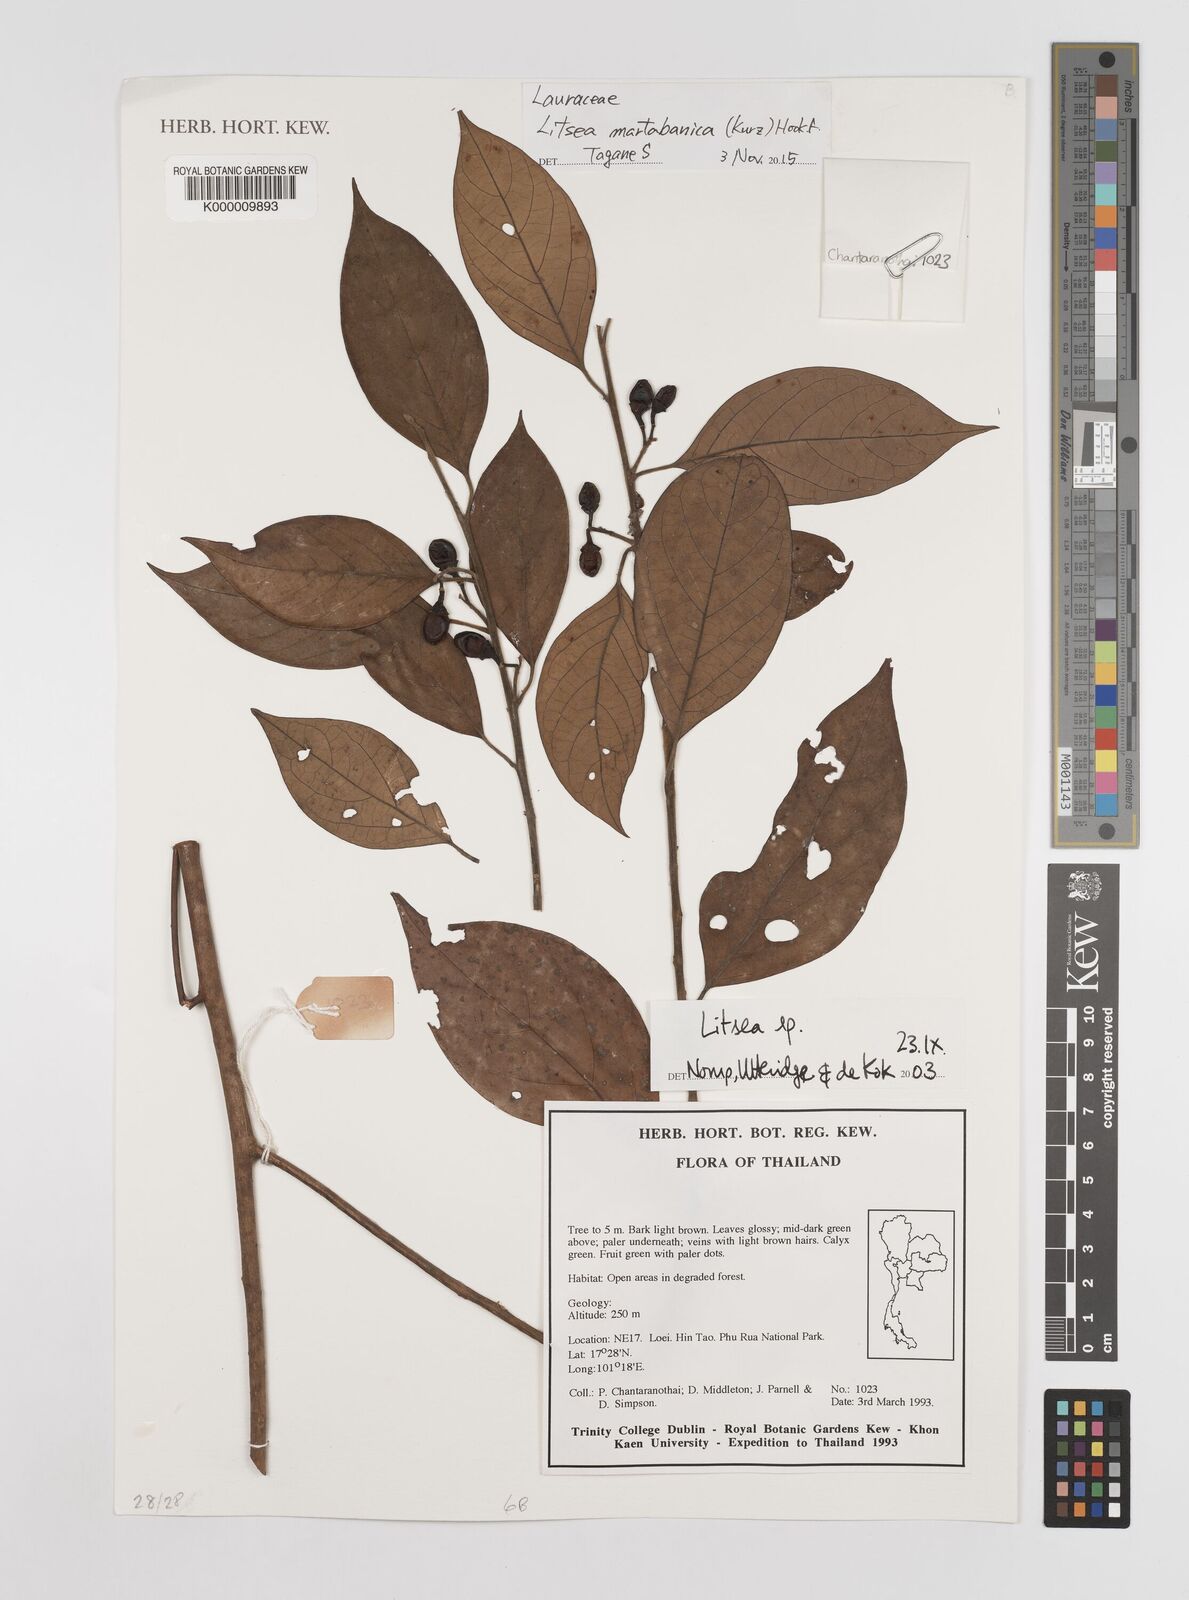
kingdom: Plantae
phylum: Tracheophyta
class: Magnoliopsida
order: Laurales
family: Lauraceae
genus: Litsea
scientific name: Litsea martabanica
